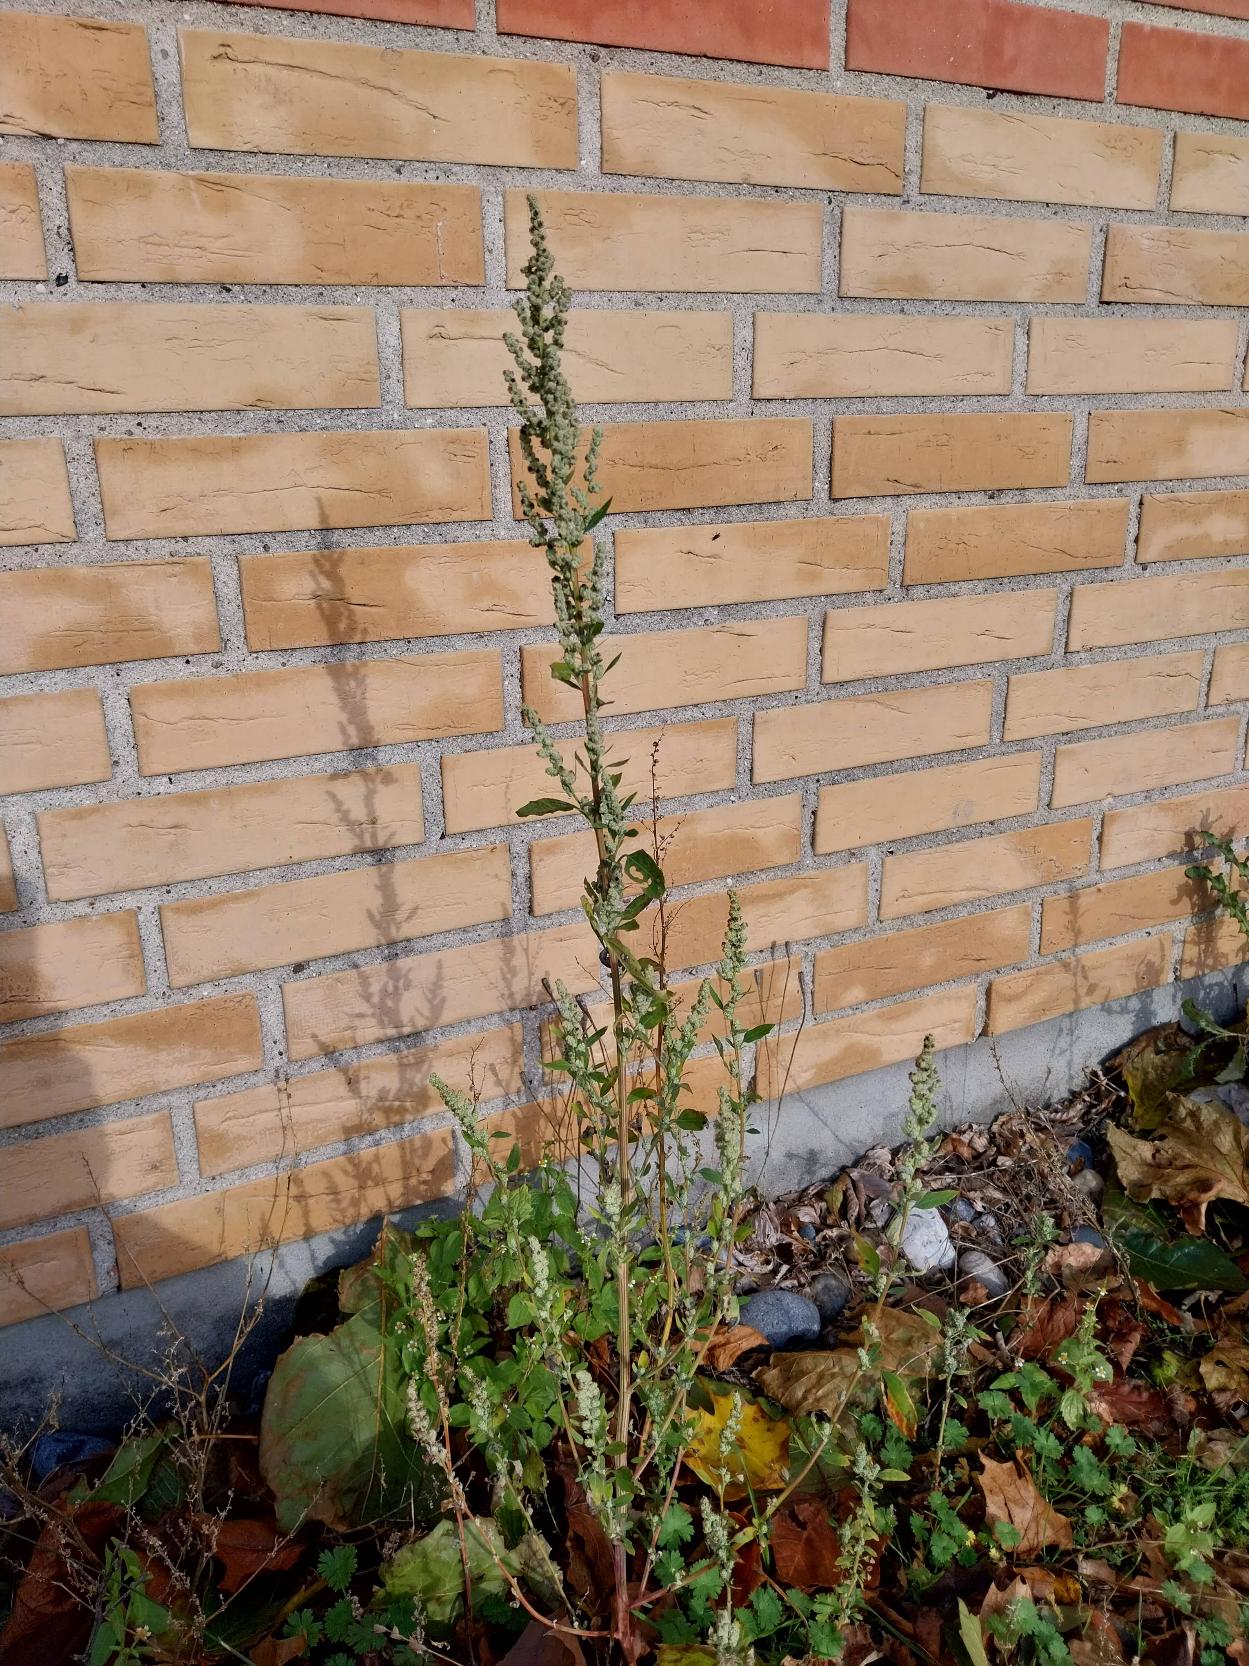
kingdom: Plantae
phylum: Tracheophyta
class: Magnoliopsida
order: Caryophyllales
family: Amaranthaceae
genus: Chenopodium
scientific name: Chenopodium album
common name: Hvidmelet gåsefod
